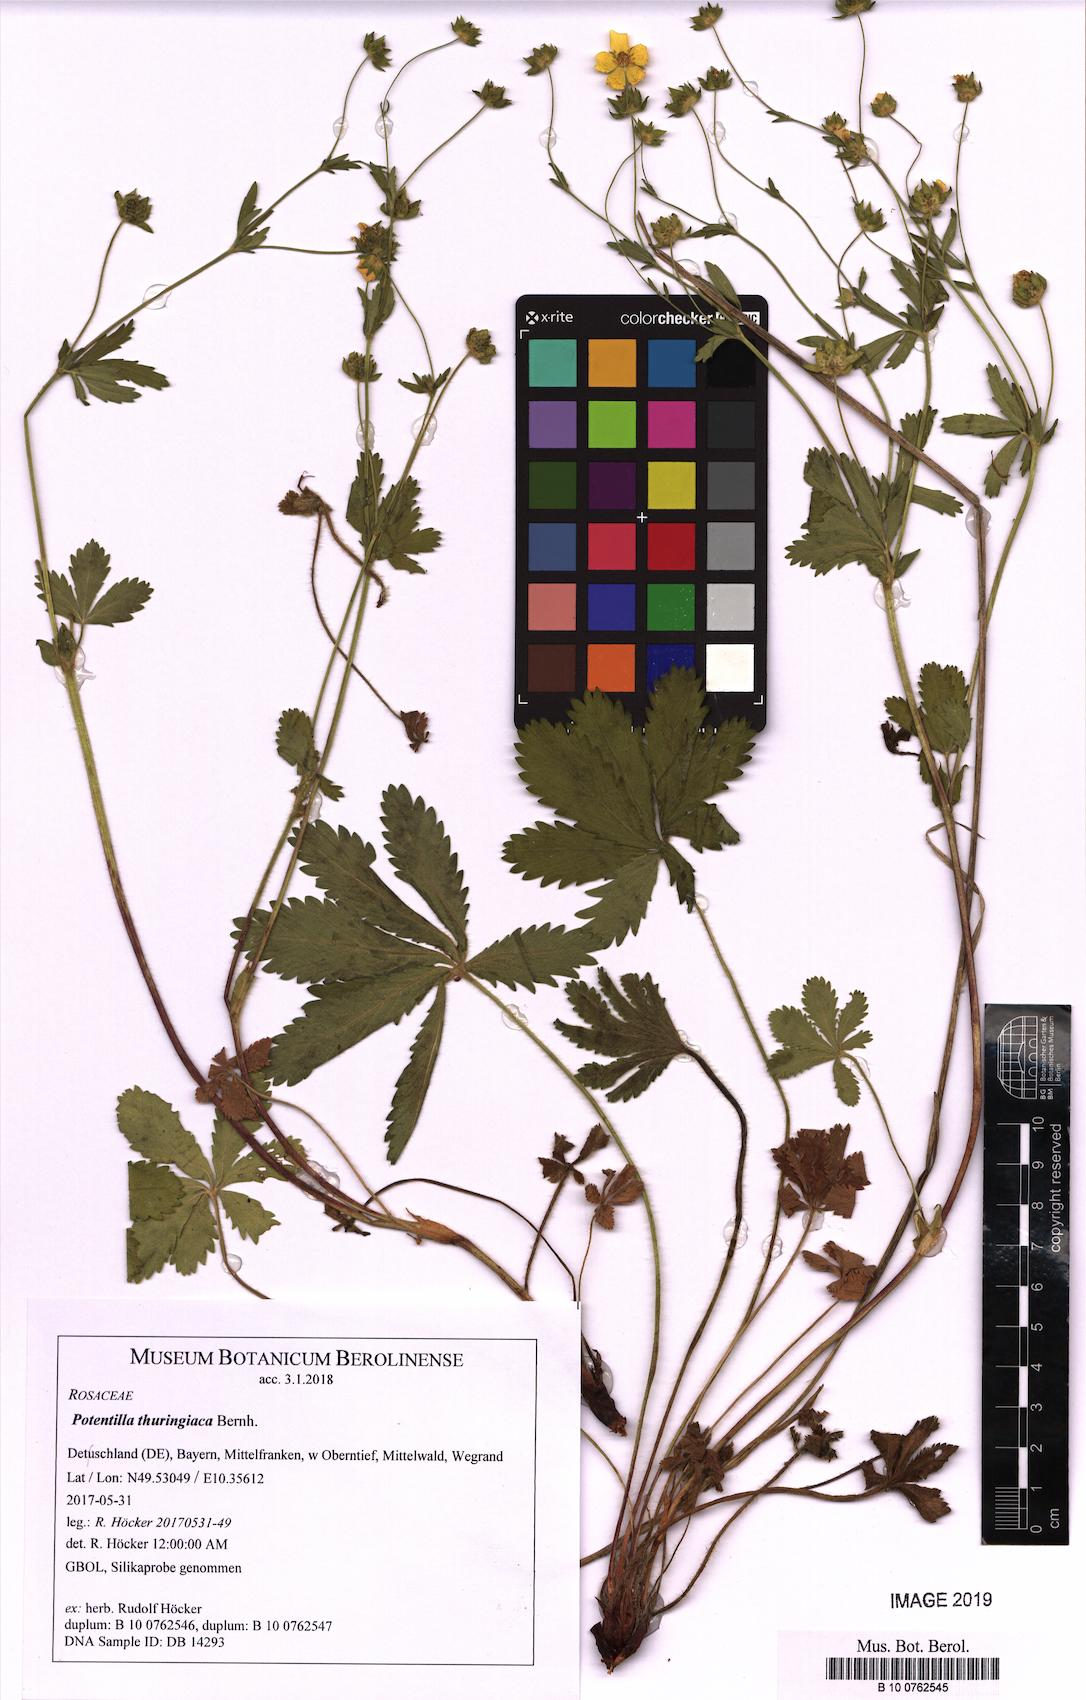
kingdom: Plantae
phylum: Tracheophyta
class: Magnoliopsida
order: Rosales
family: Rosaceae
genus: Potentilla
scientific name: Potentilla thuringiaca
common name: European cinquefoil
